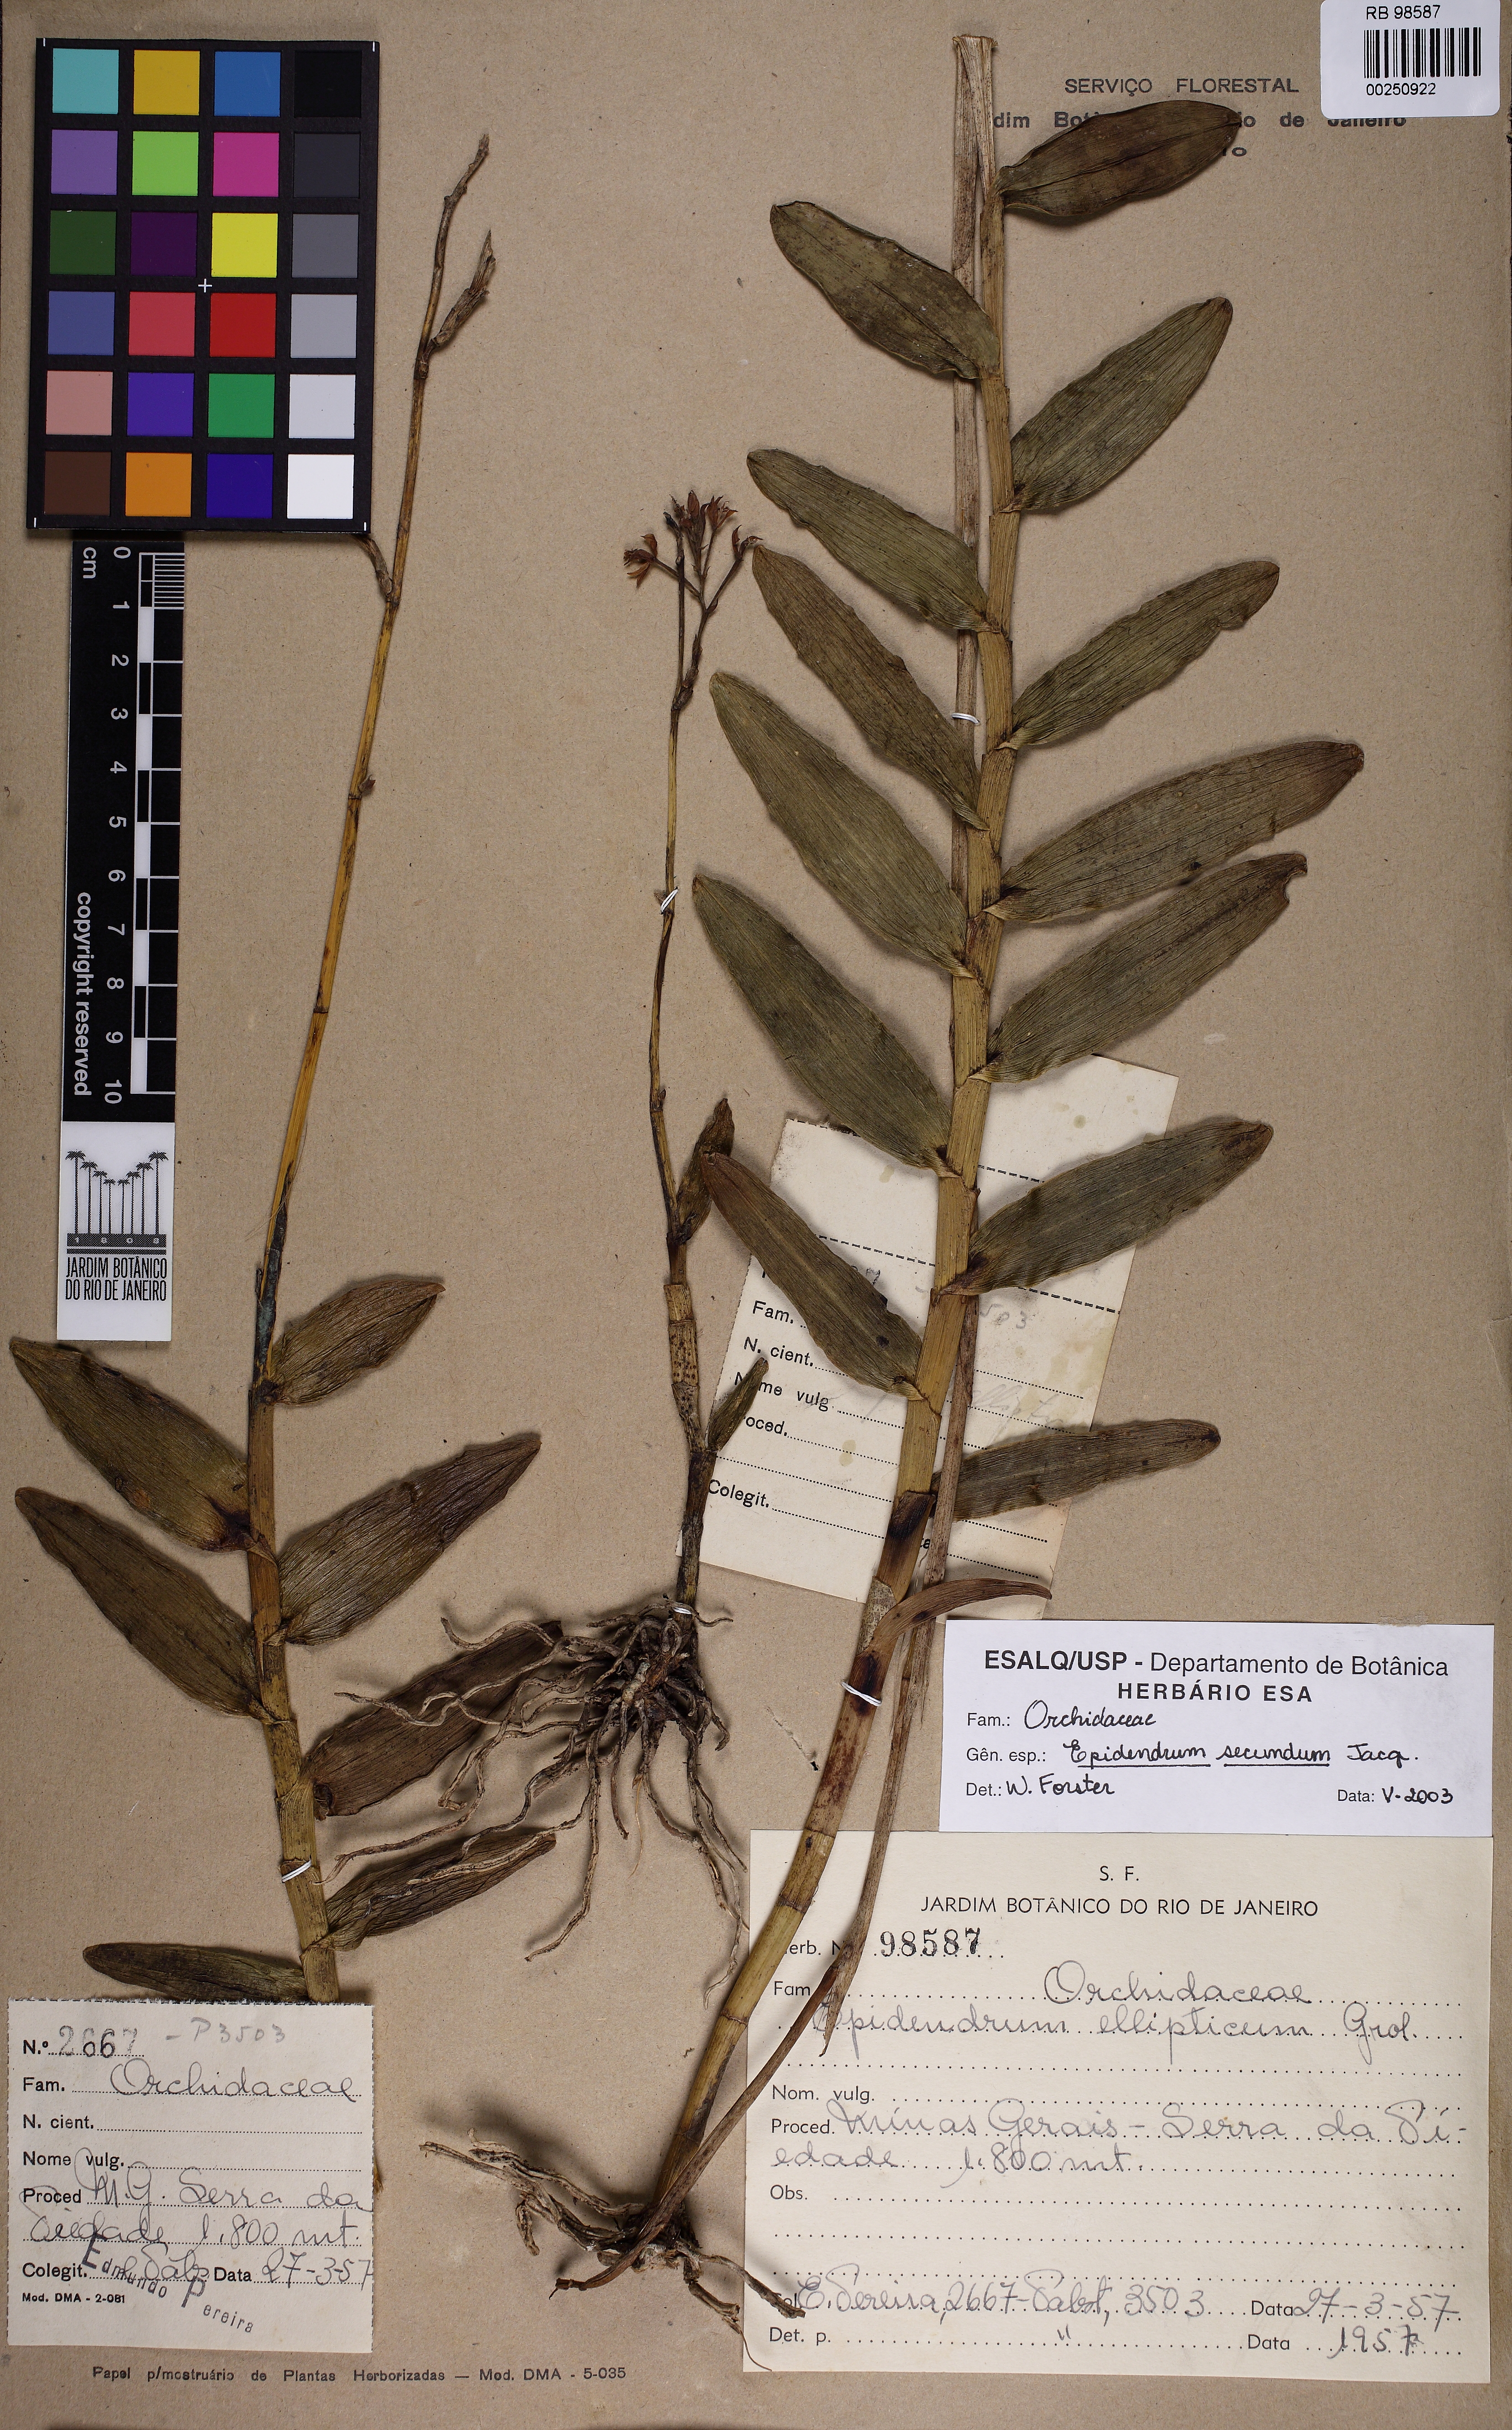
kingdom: Plantae
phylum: Tracheophyta
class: Liliopsida
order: Asparagales
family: Orchidaceae
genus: Epidendrum
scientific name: Epidendrum secundum
